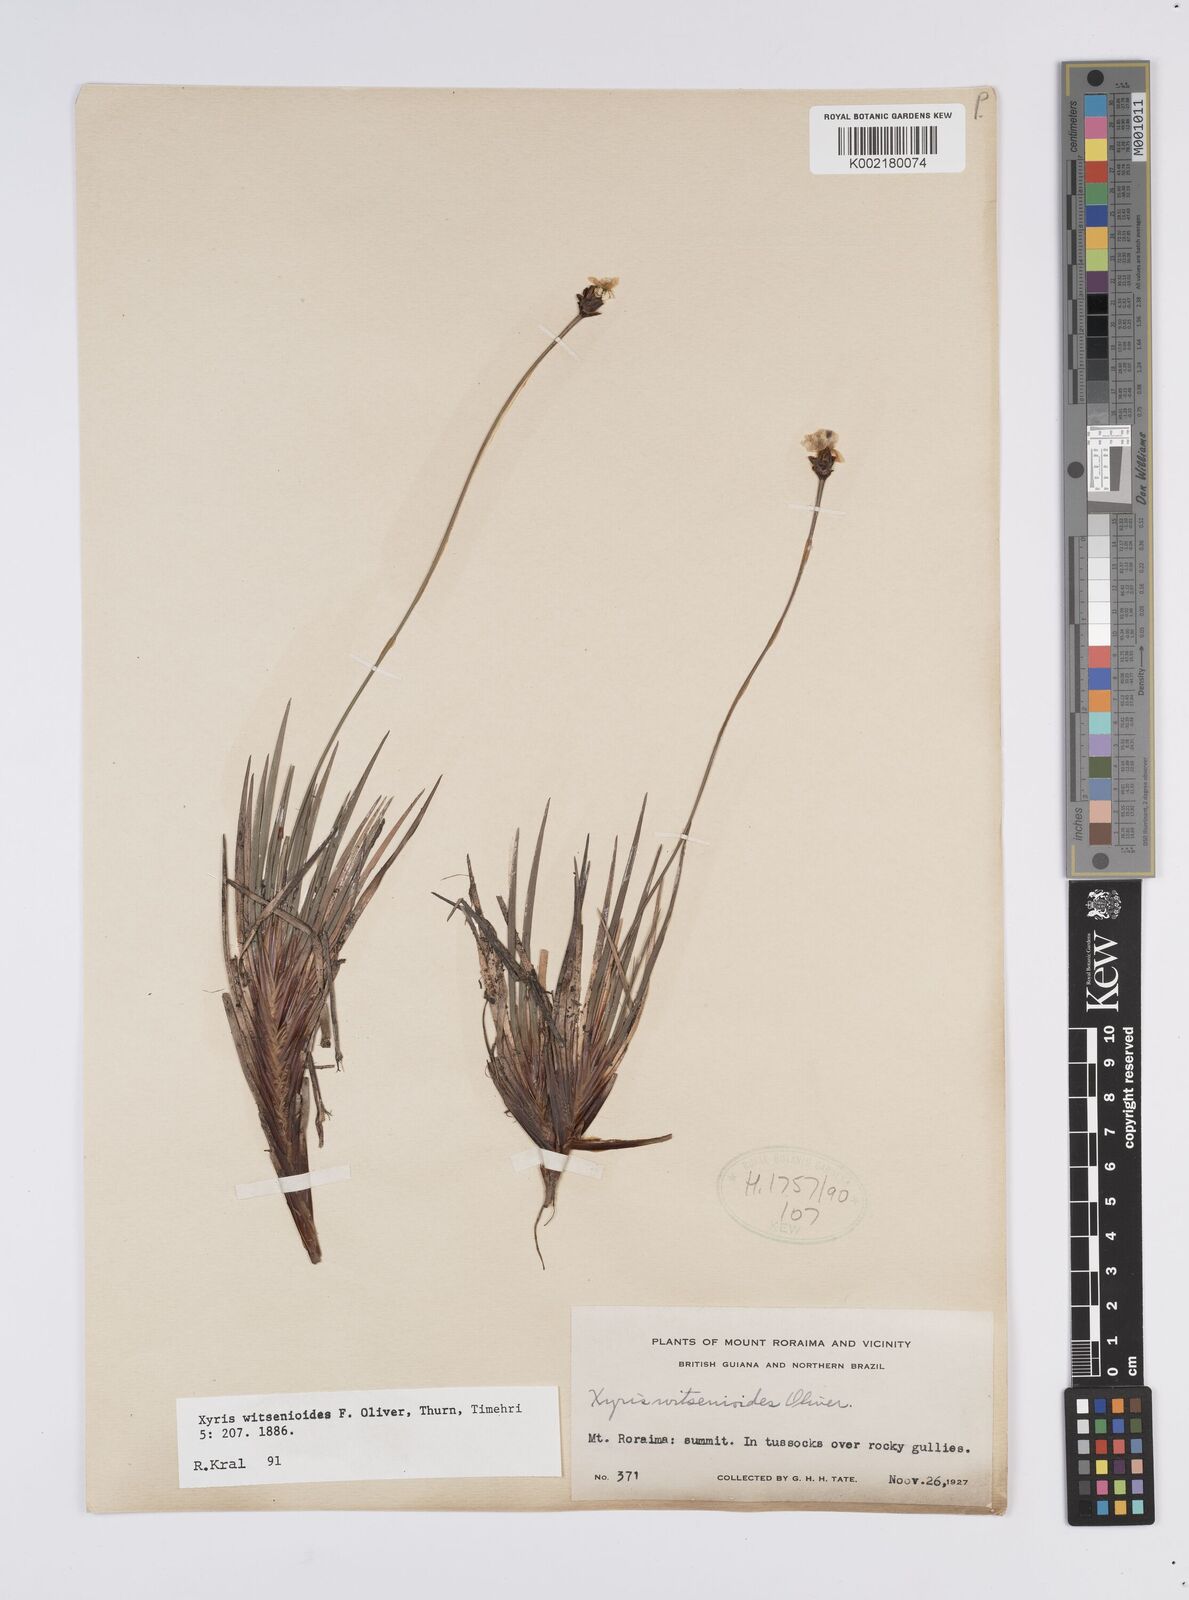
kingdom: Plantae
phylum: Tracheophyta
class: Liliopsida
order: Poales
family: Xyridaceae
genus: Xyris
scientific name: Xyris witsenioides
